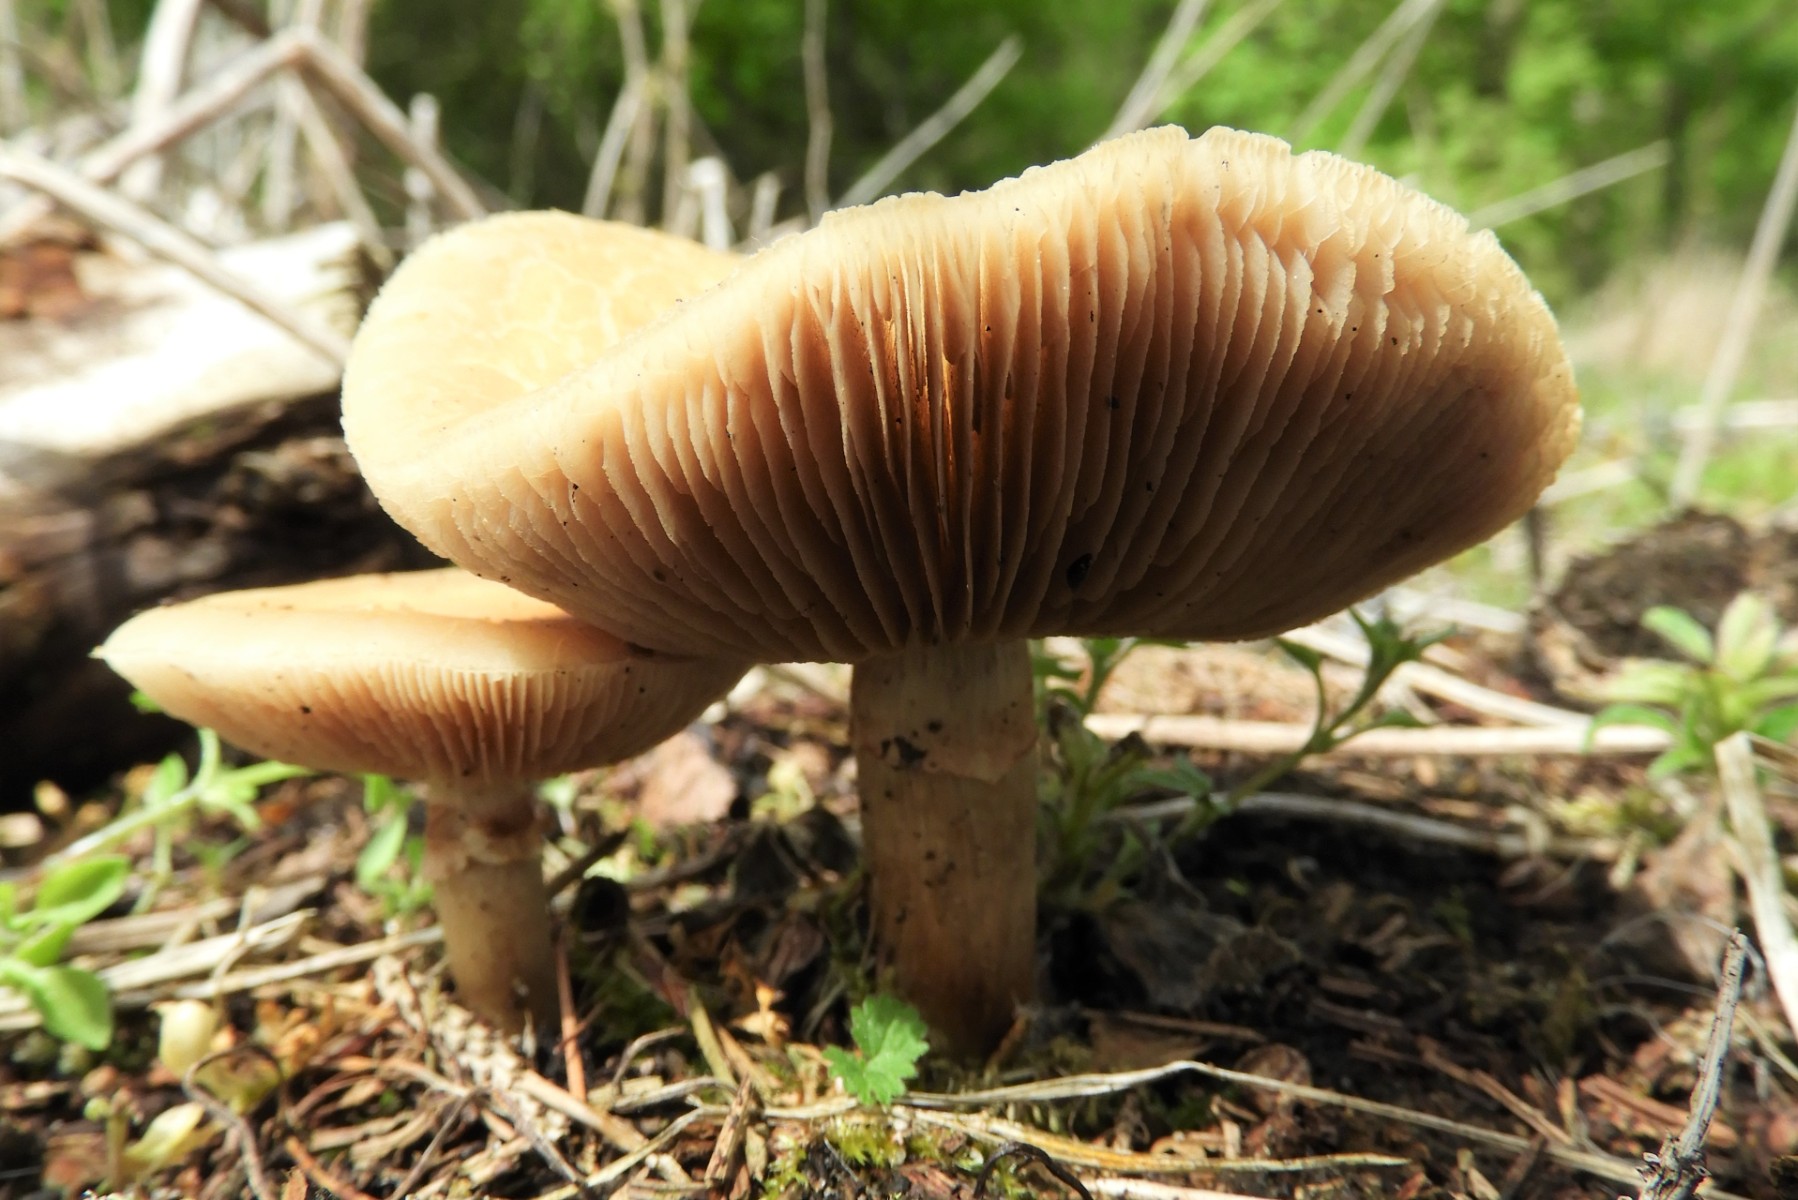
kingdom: Fungi
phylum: Basidiomycota
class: Agaricomycetes
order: Agaricales
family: Strophariaceae
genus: Agrocybe
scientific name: Agrocybe praecox
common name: tidlig agerhat
